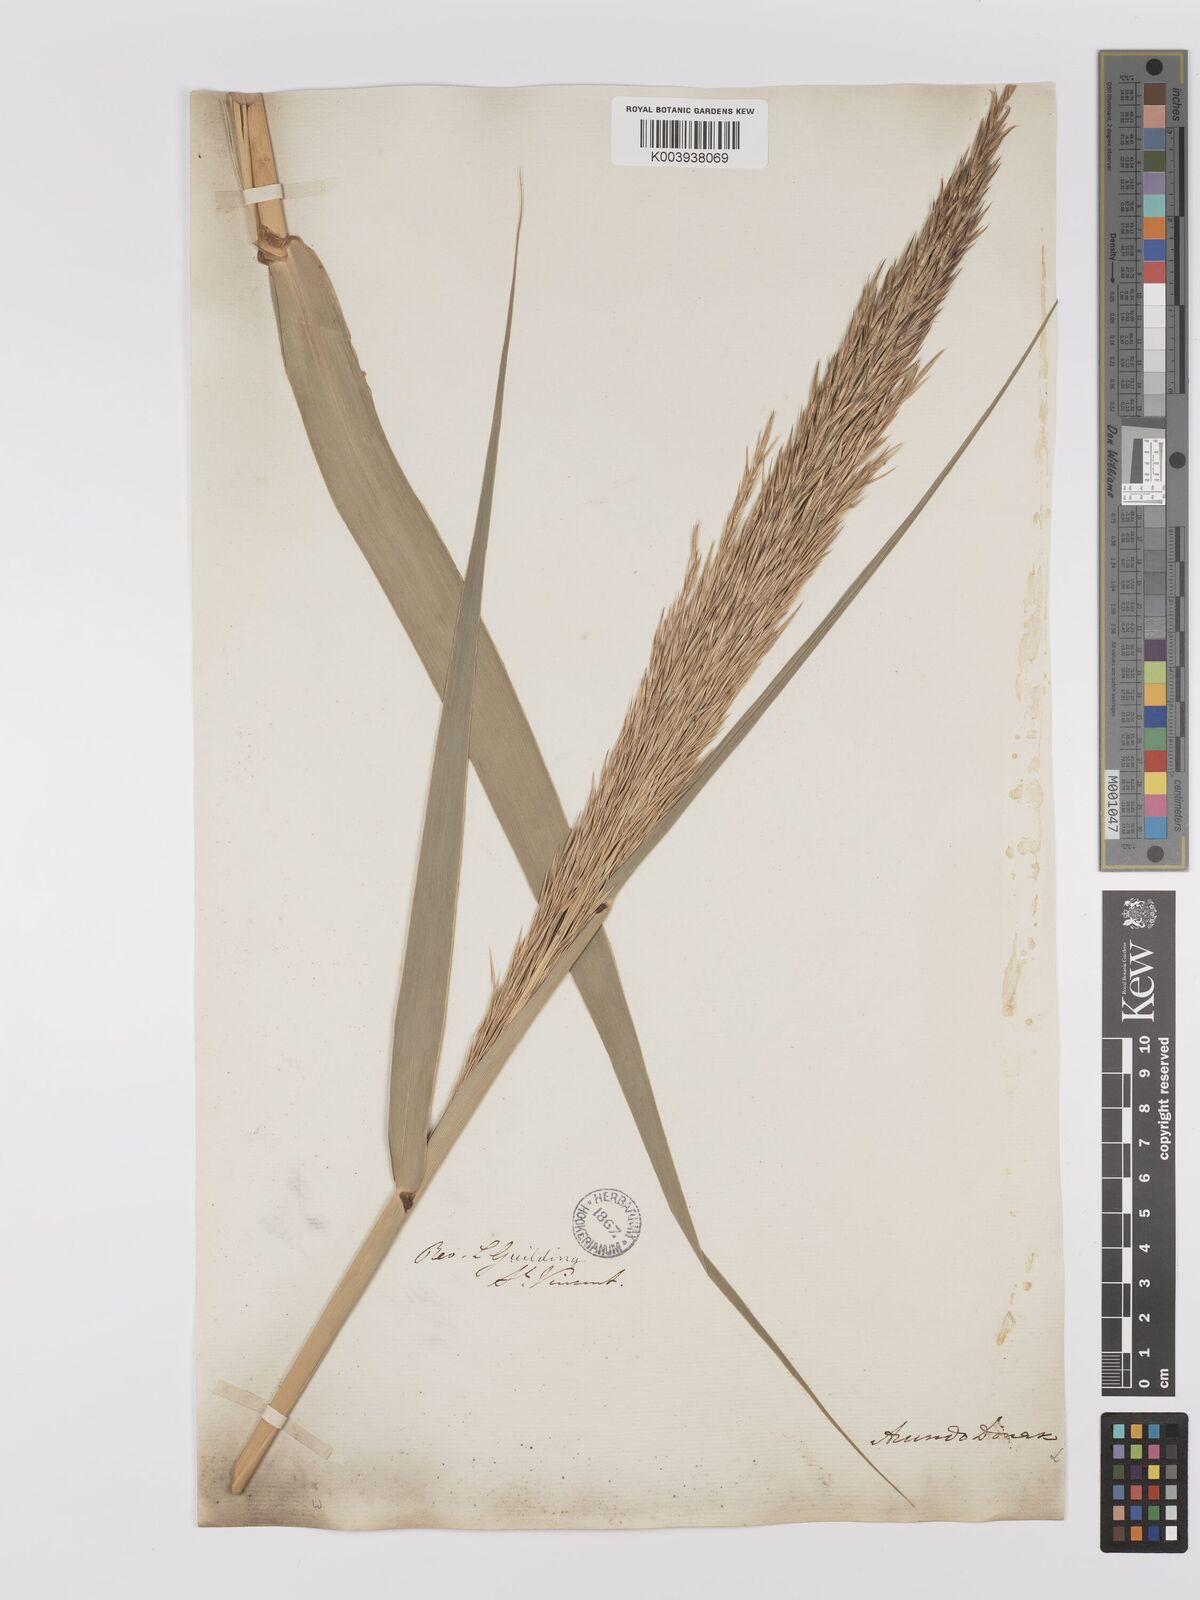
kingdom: Plantae
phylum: Tracheophyta
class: Liliopsida
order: Poales
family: Poaceae
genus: Arundo
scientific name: Arundo donax
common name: Giant reed
